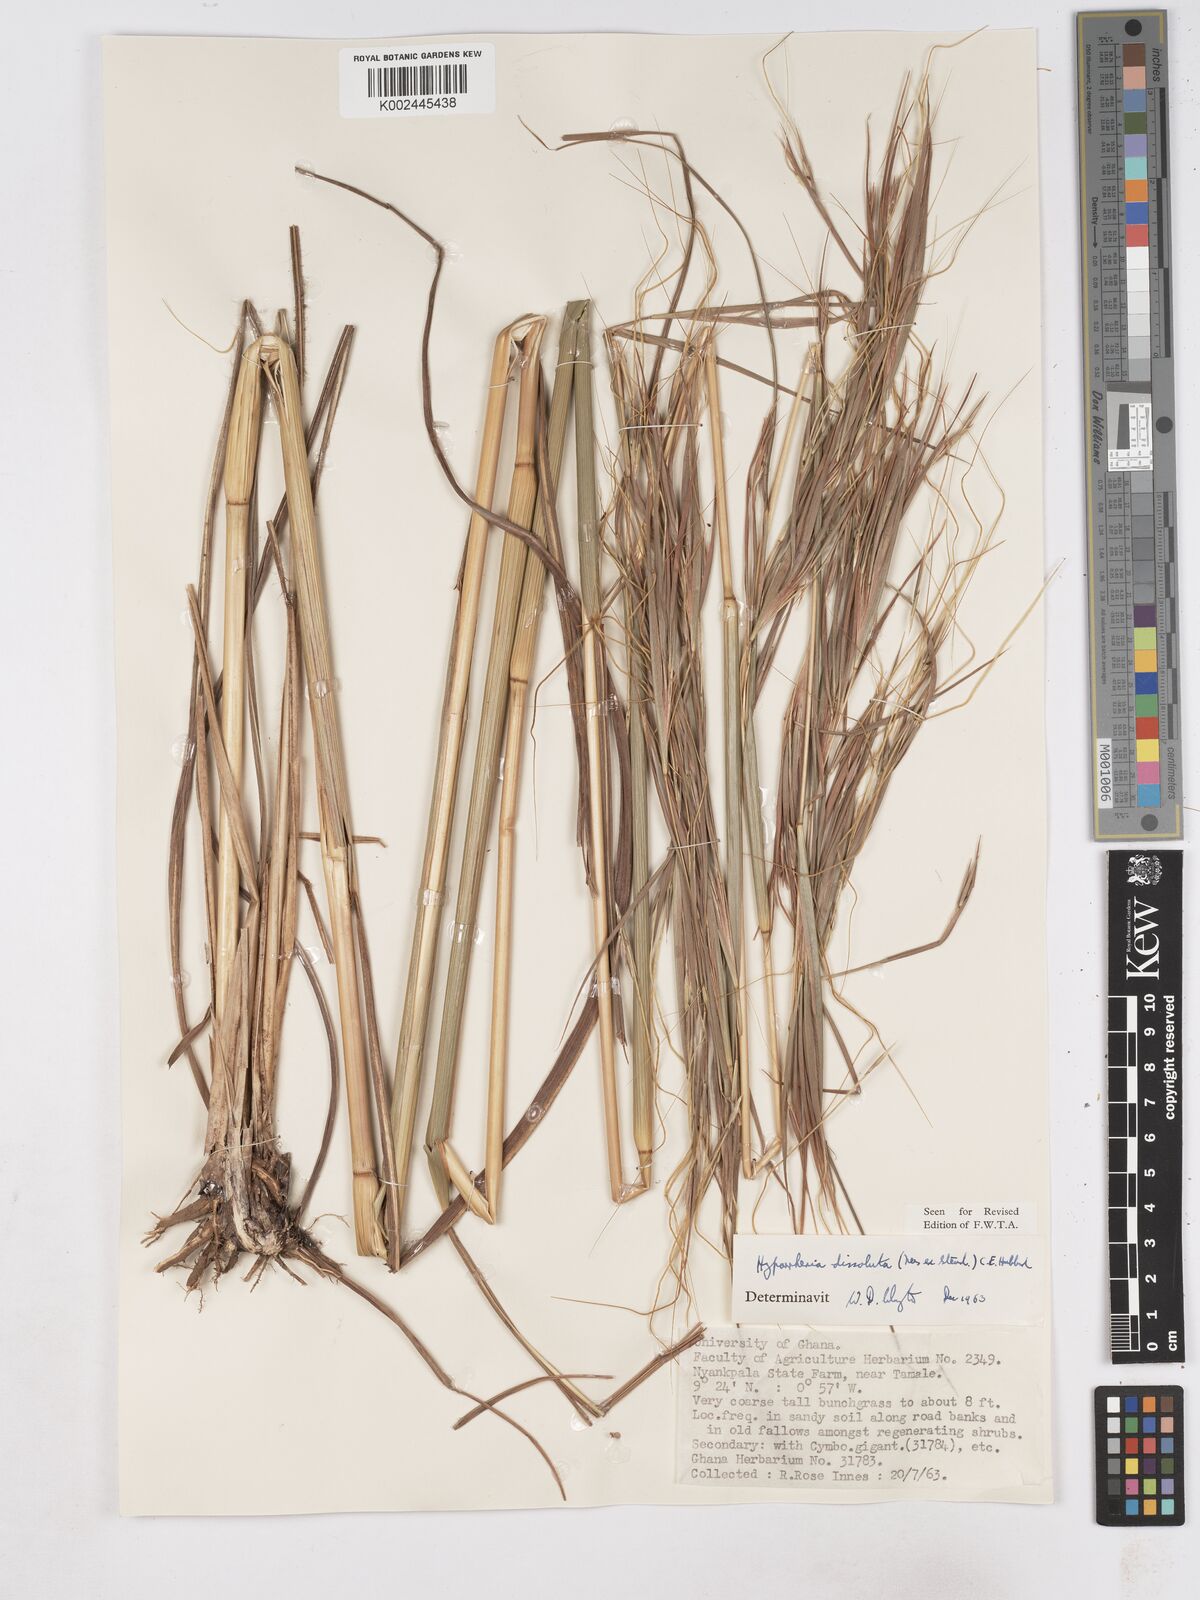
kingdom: Plantae
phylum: Tracheophyta
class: Liliopsida
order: Poales
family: Poaceae
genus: Hyperthelia
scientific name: Hyperthelia dissoluta
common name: Yellow thatching grass
